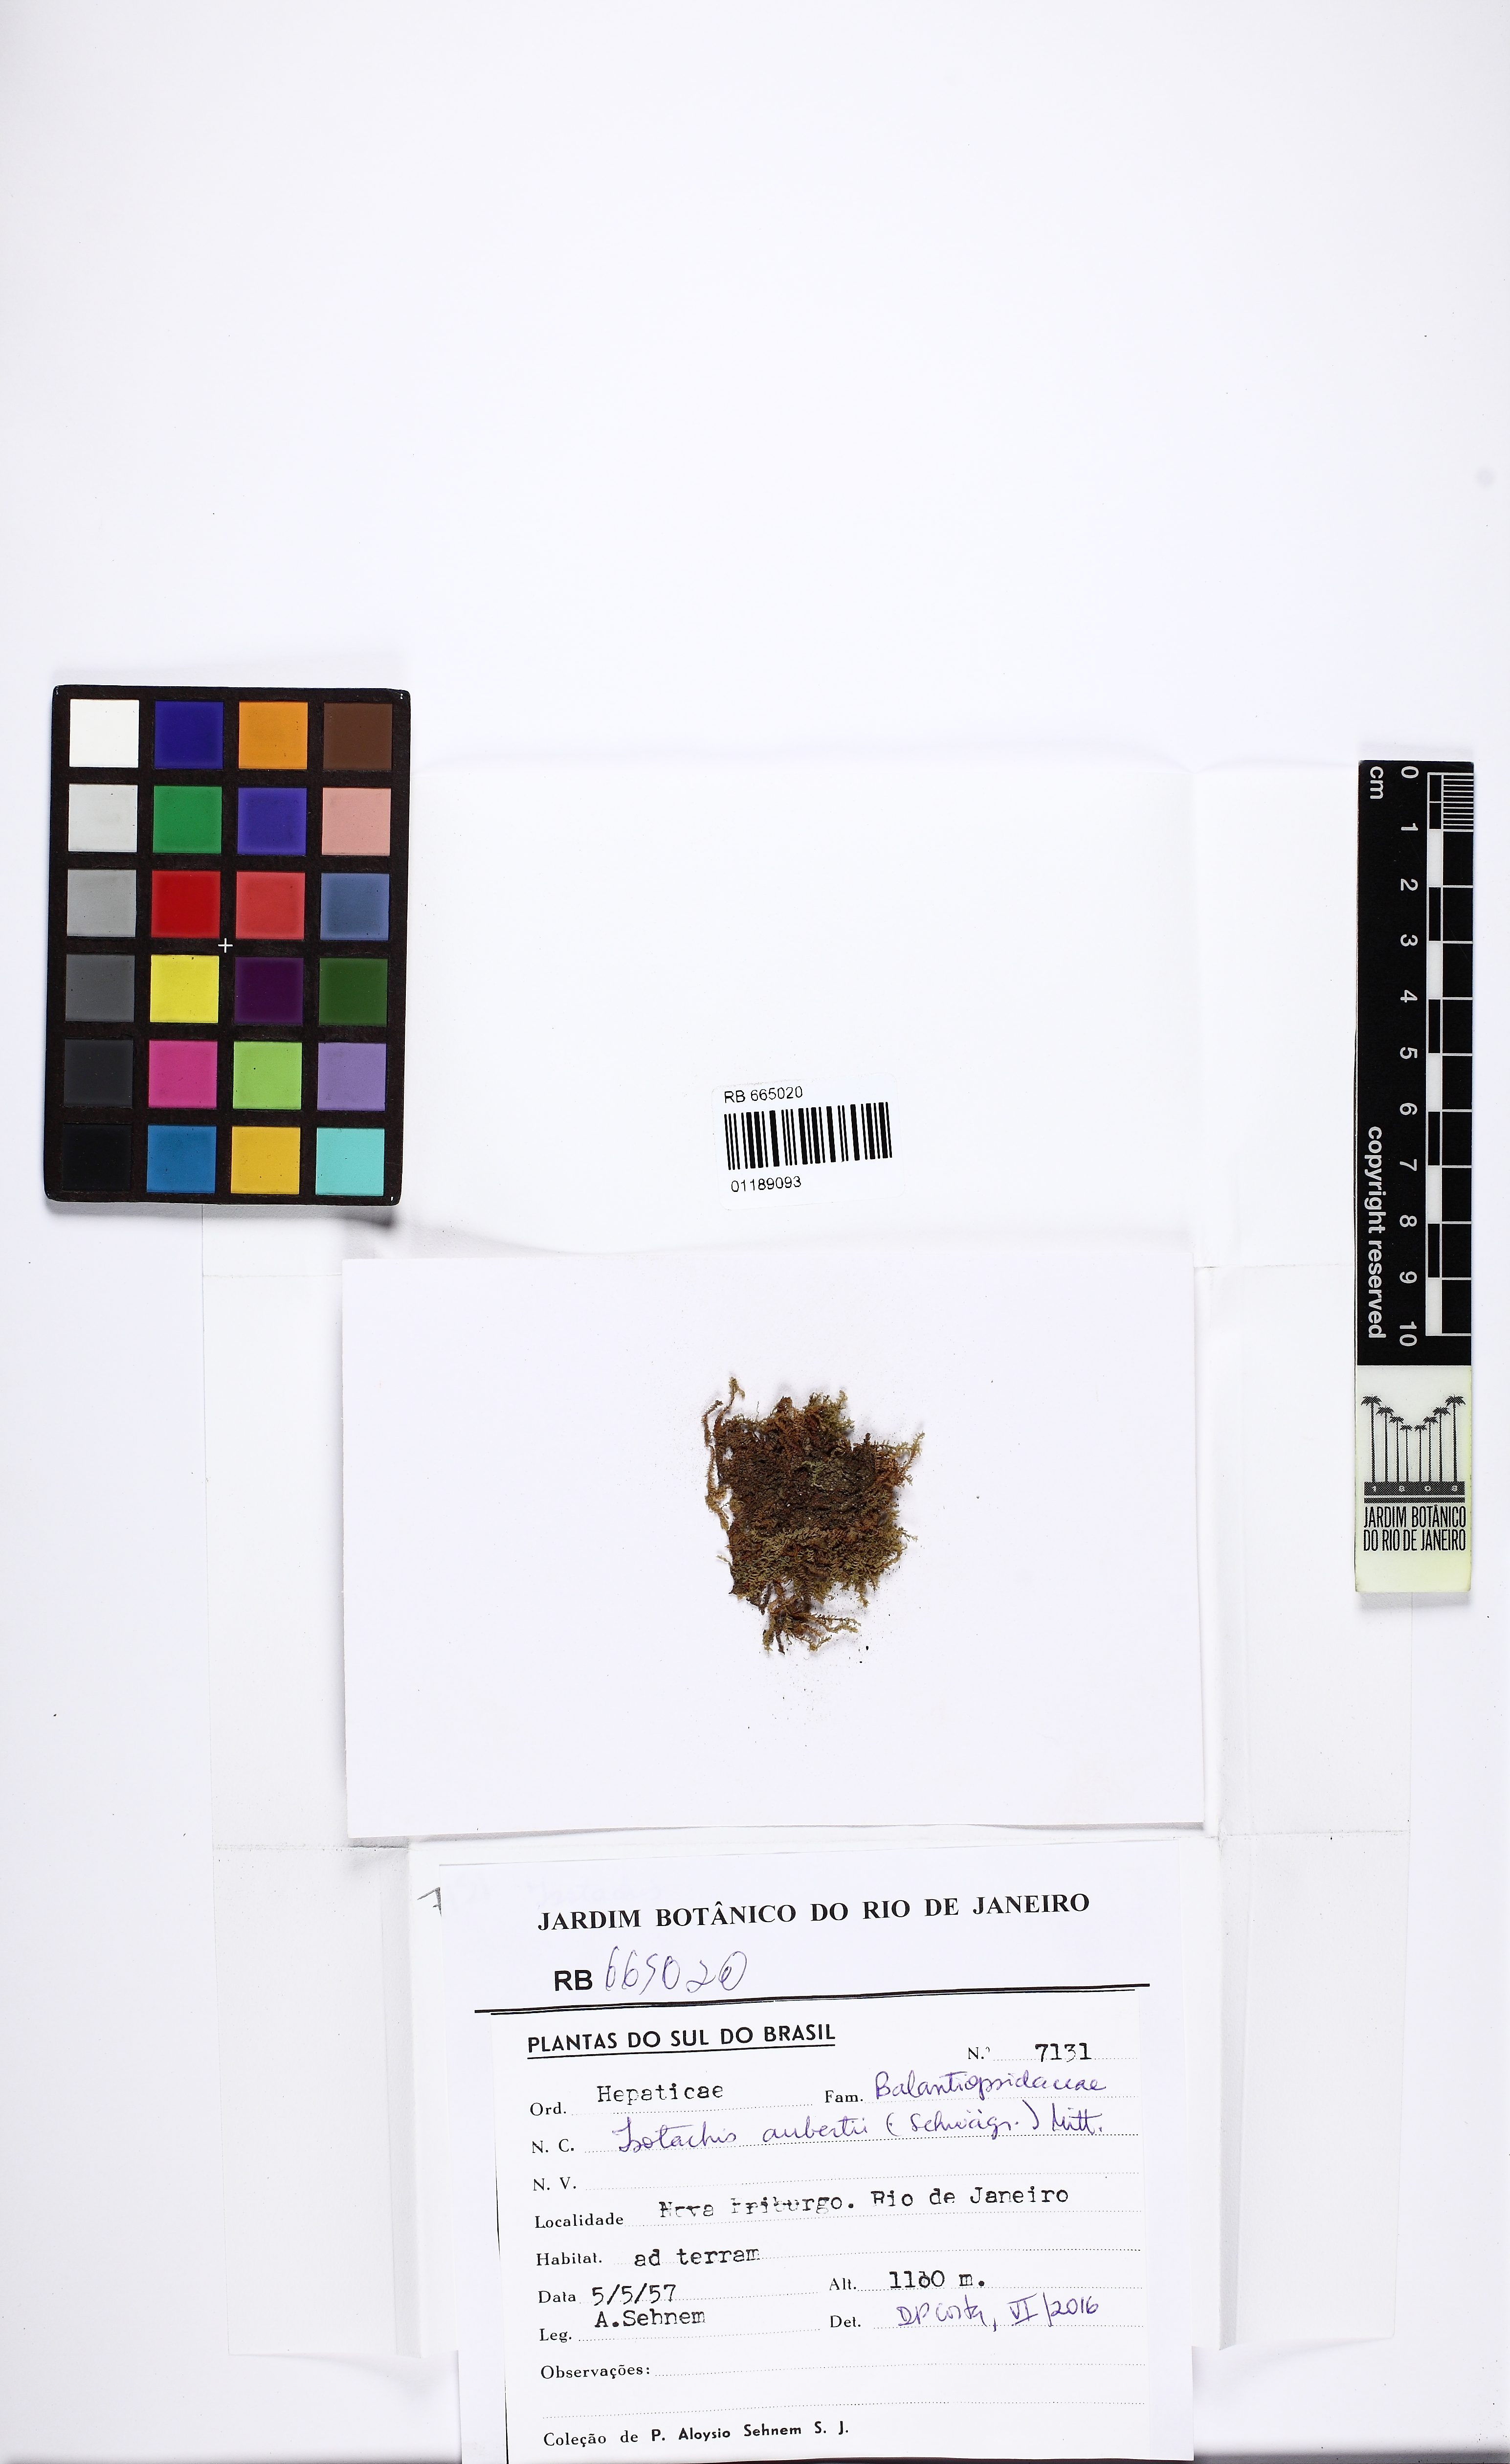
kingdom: Plantae
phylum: Marchantiophyta
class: Jungermanniopsida
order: Jungermanniales
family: Balantiopsidaceae
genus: Isotachis
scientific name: Isotachis aubertii
